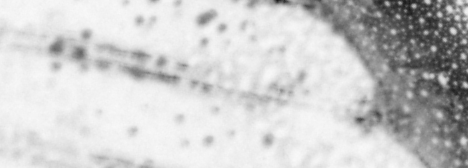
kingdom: Animalia
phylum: Chordata
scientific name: Chordata
